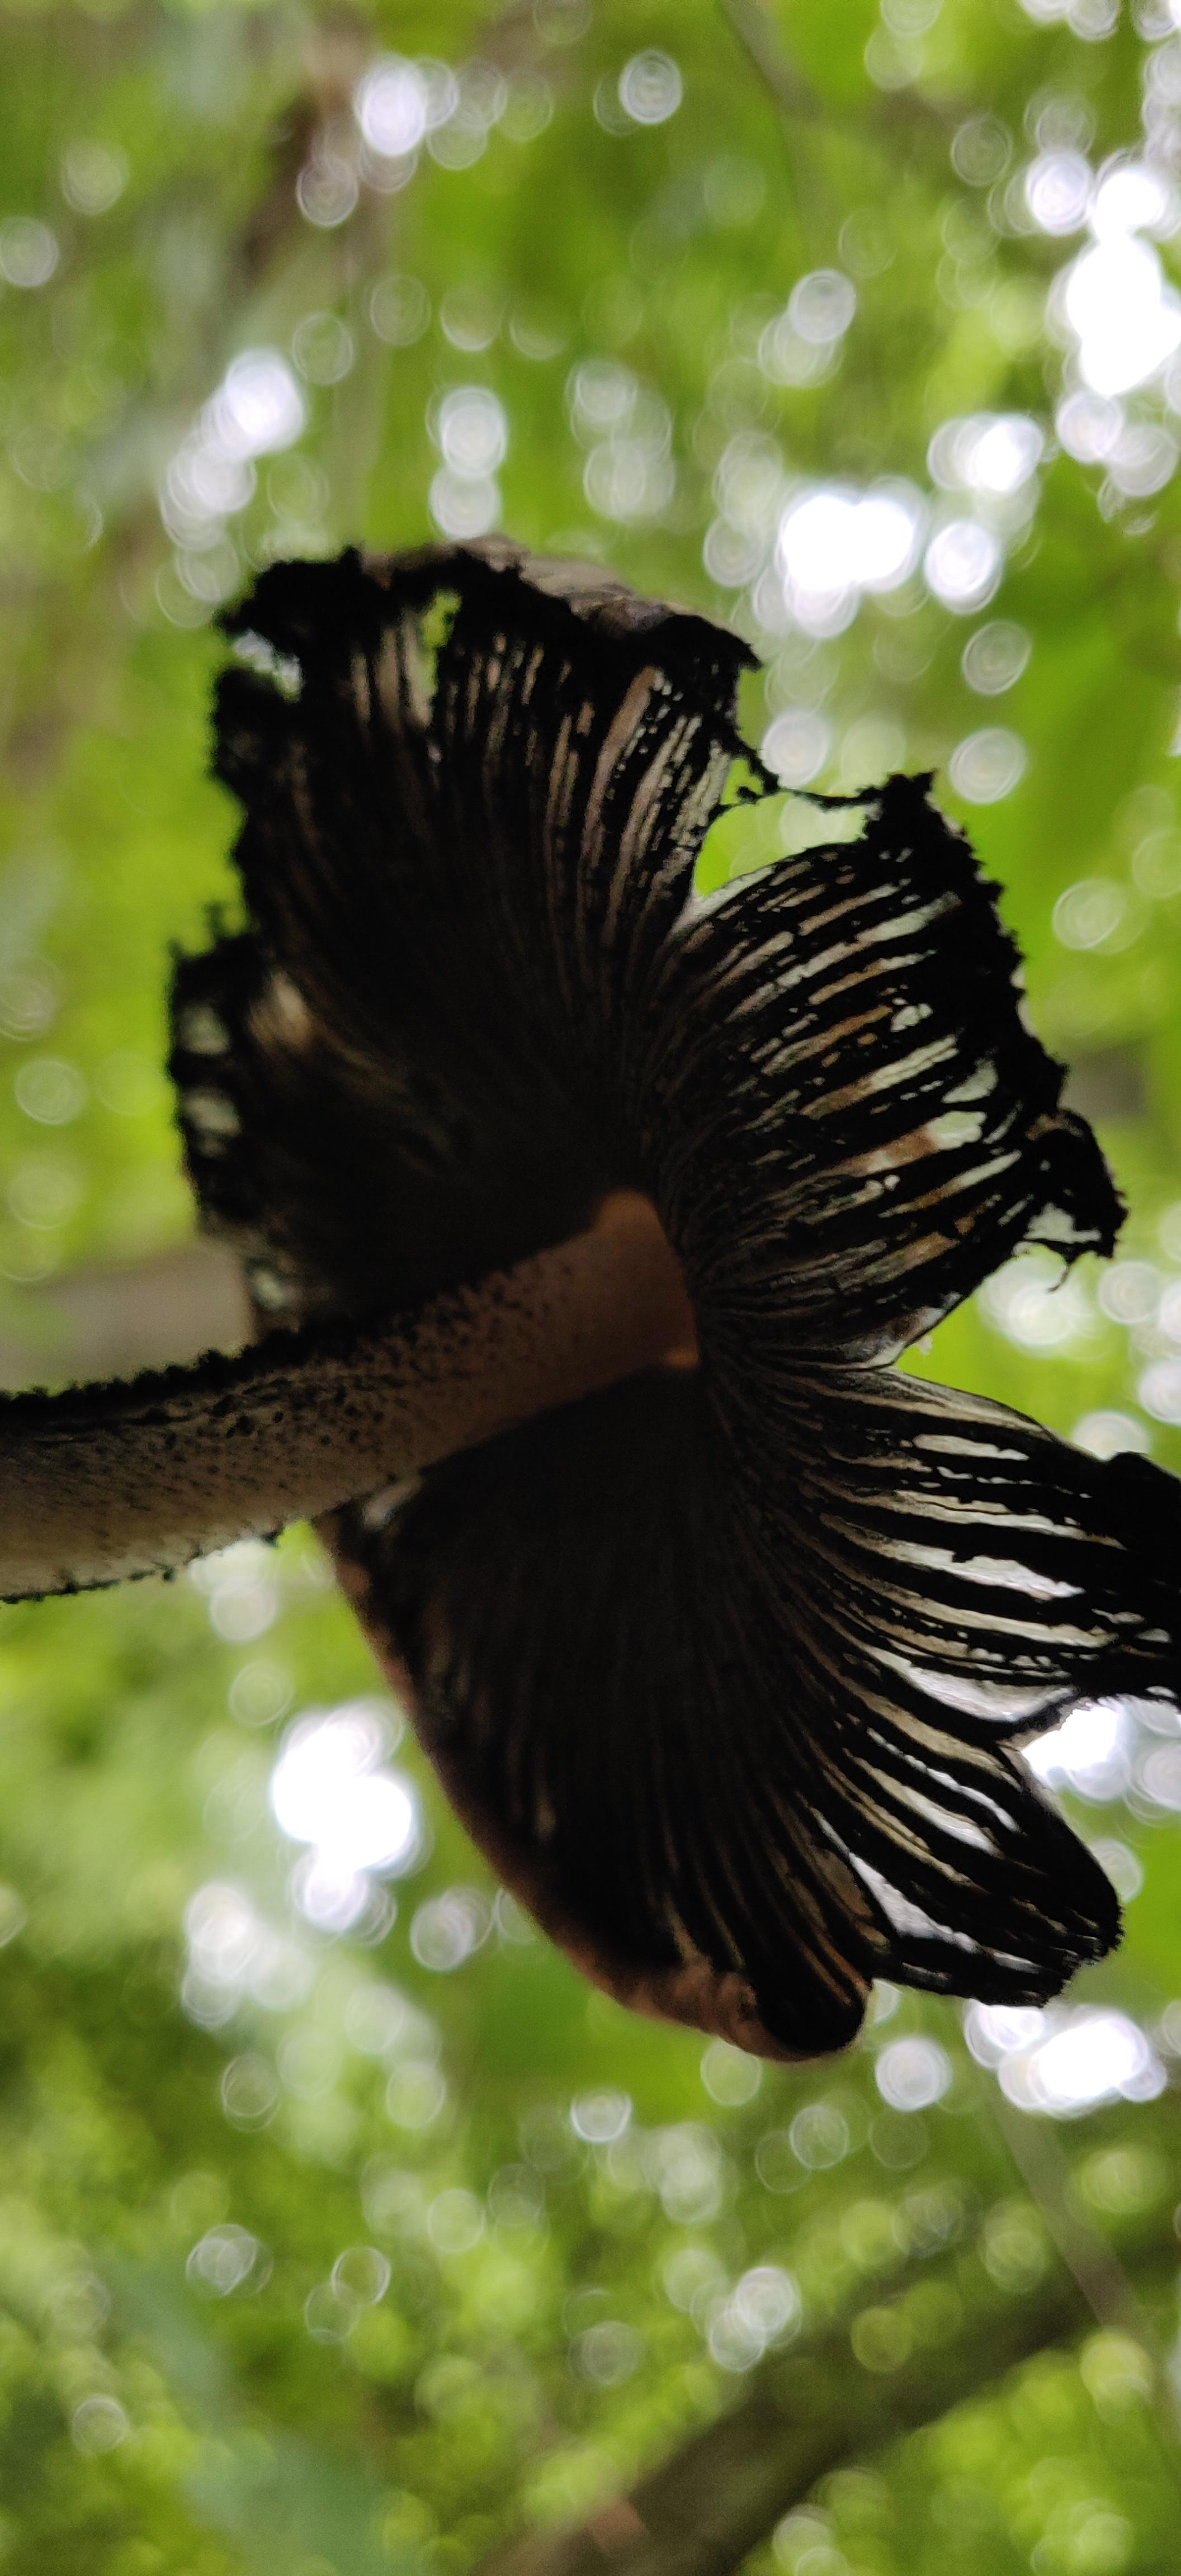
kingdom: Fungi
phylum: Basidiomycota
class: Agaricomycetes
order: Agaricales
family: Psathyrellaceae
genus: Coprinopsis
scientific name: Coprinopsis picacea
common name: skade-blækhat
